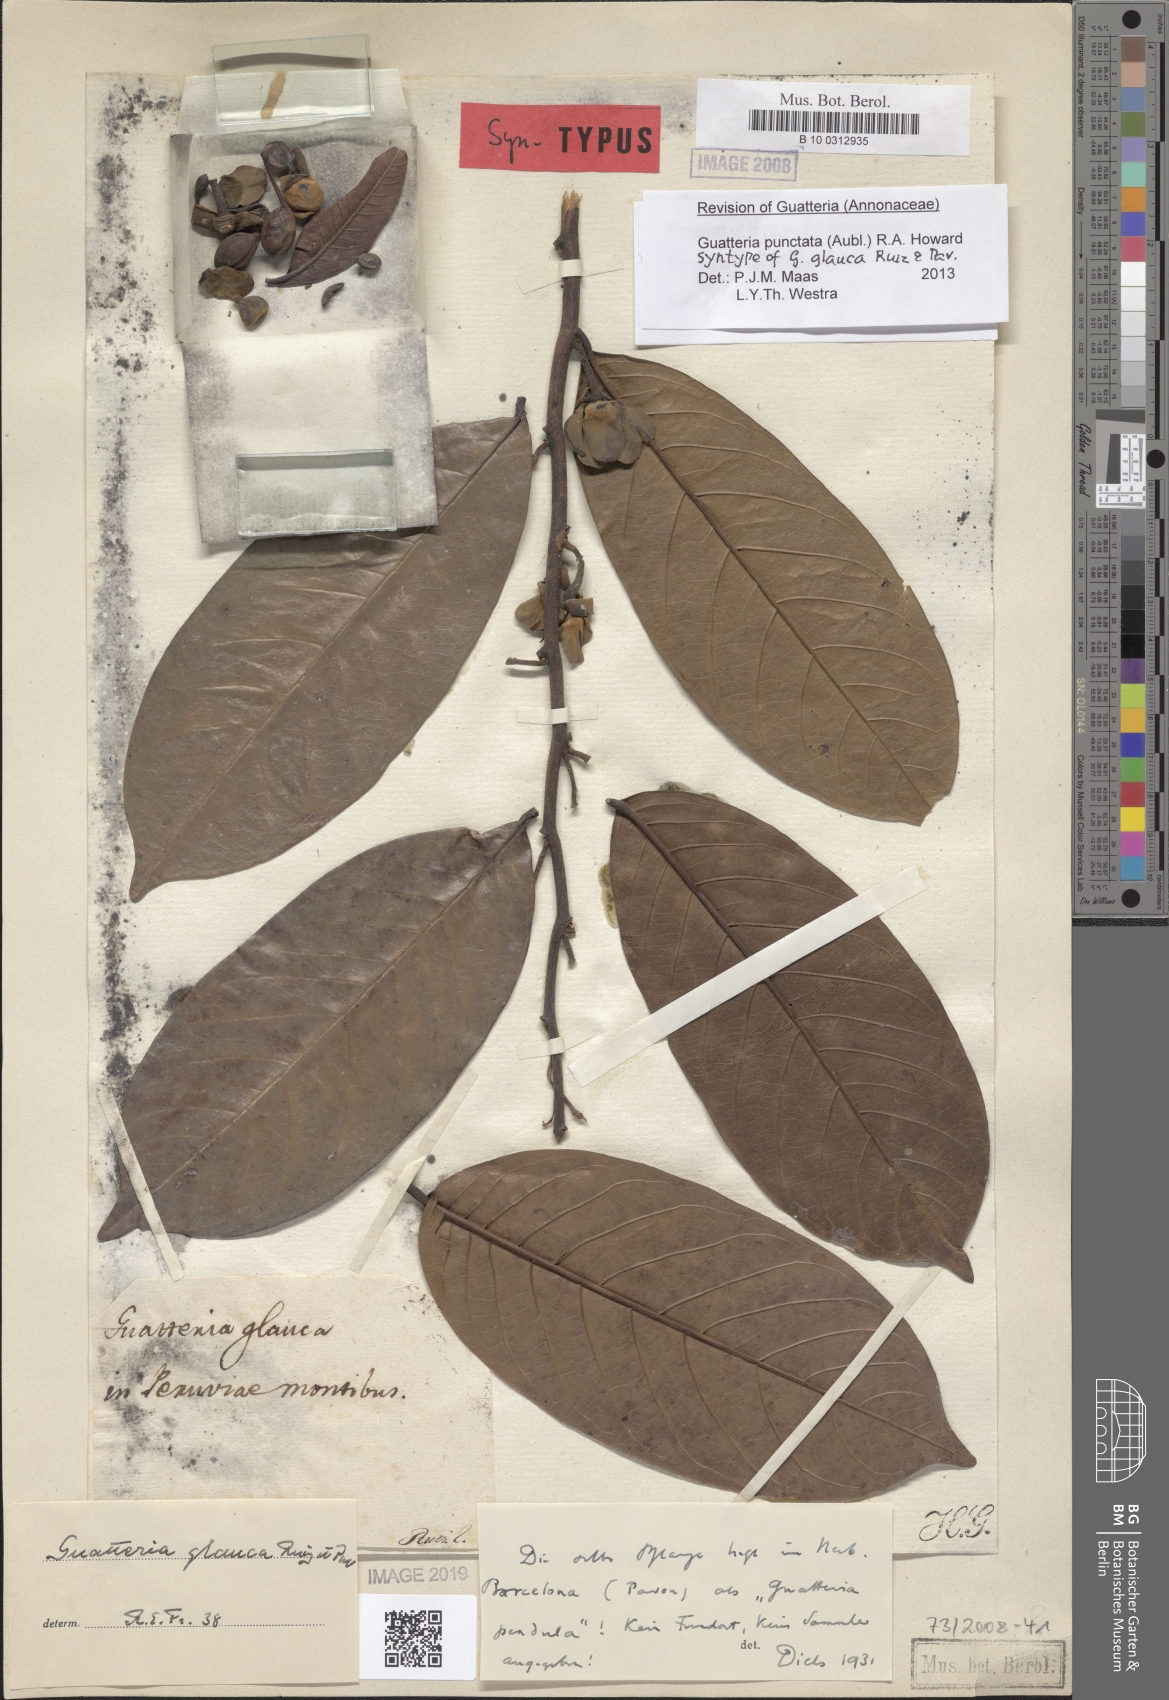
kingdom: Plantae
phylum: Tracheophyta
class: Magnoliopsida
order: Magnoliales
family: Annonaceae
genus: Guatteria
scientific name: Guatteria punctata
